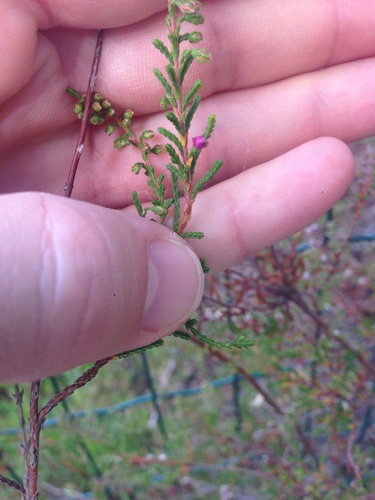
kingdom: Plantae
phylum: Tracheophyta
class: Magnoliopsida
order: Ericales
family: Ericaceae
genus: Calluna
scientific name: Calluna vulgaris
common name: Heather
